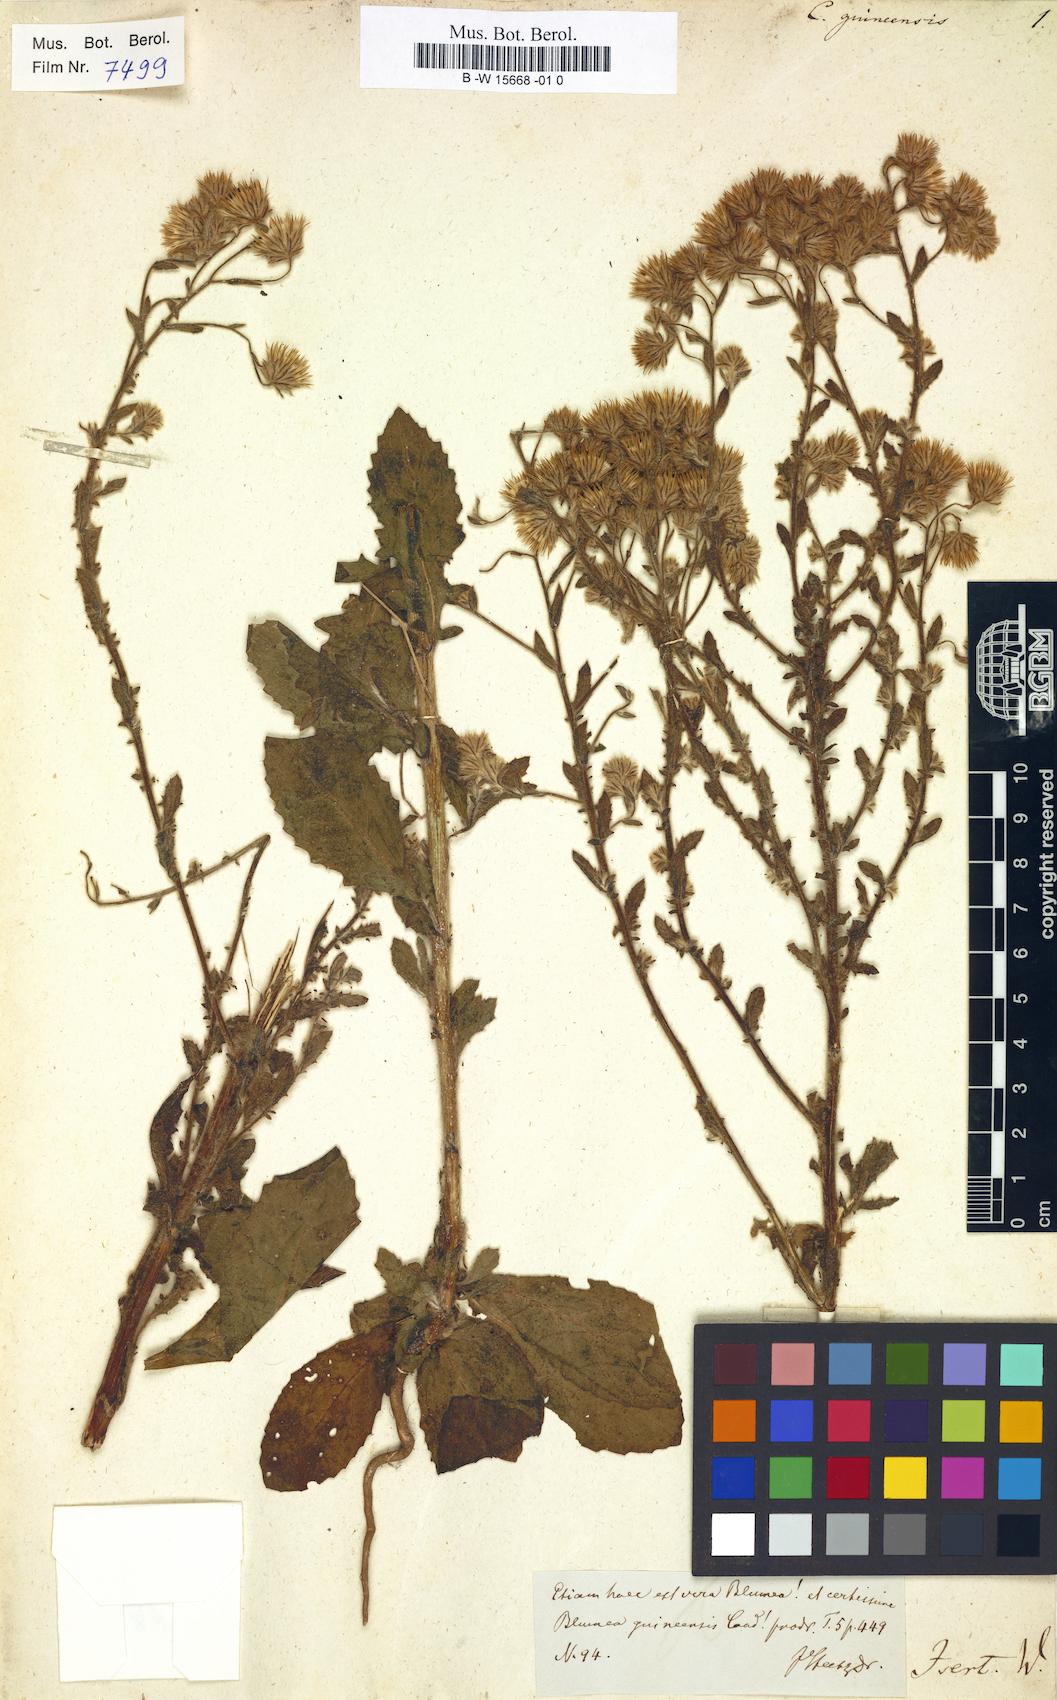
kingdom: Plantae
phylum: Tracheophyta
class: Magnoliopsida
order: Asterales
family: Asteraceae
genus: Pseudoconyza
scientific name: Pseudoconyza viscosa
